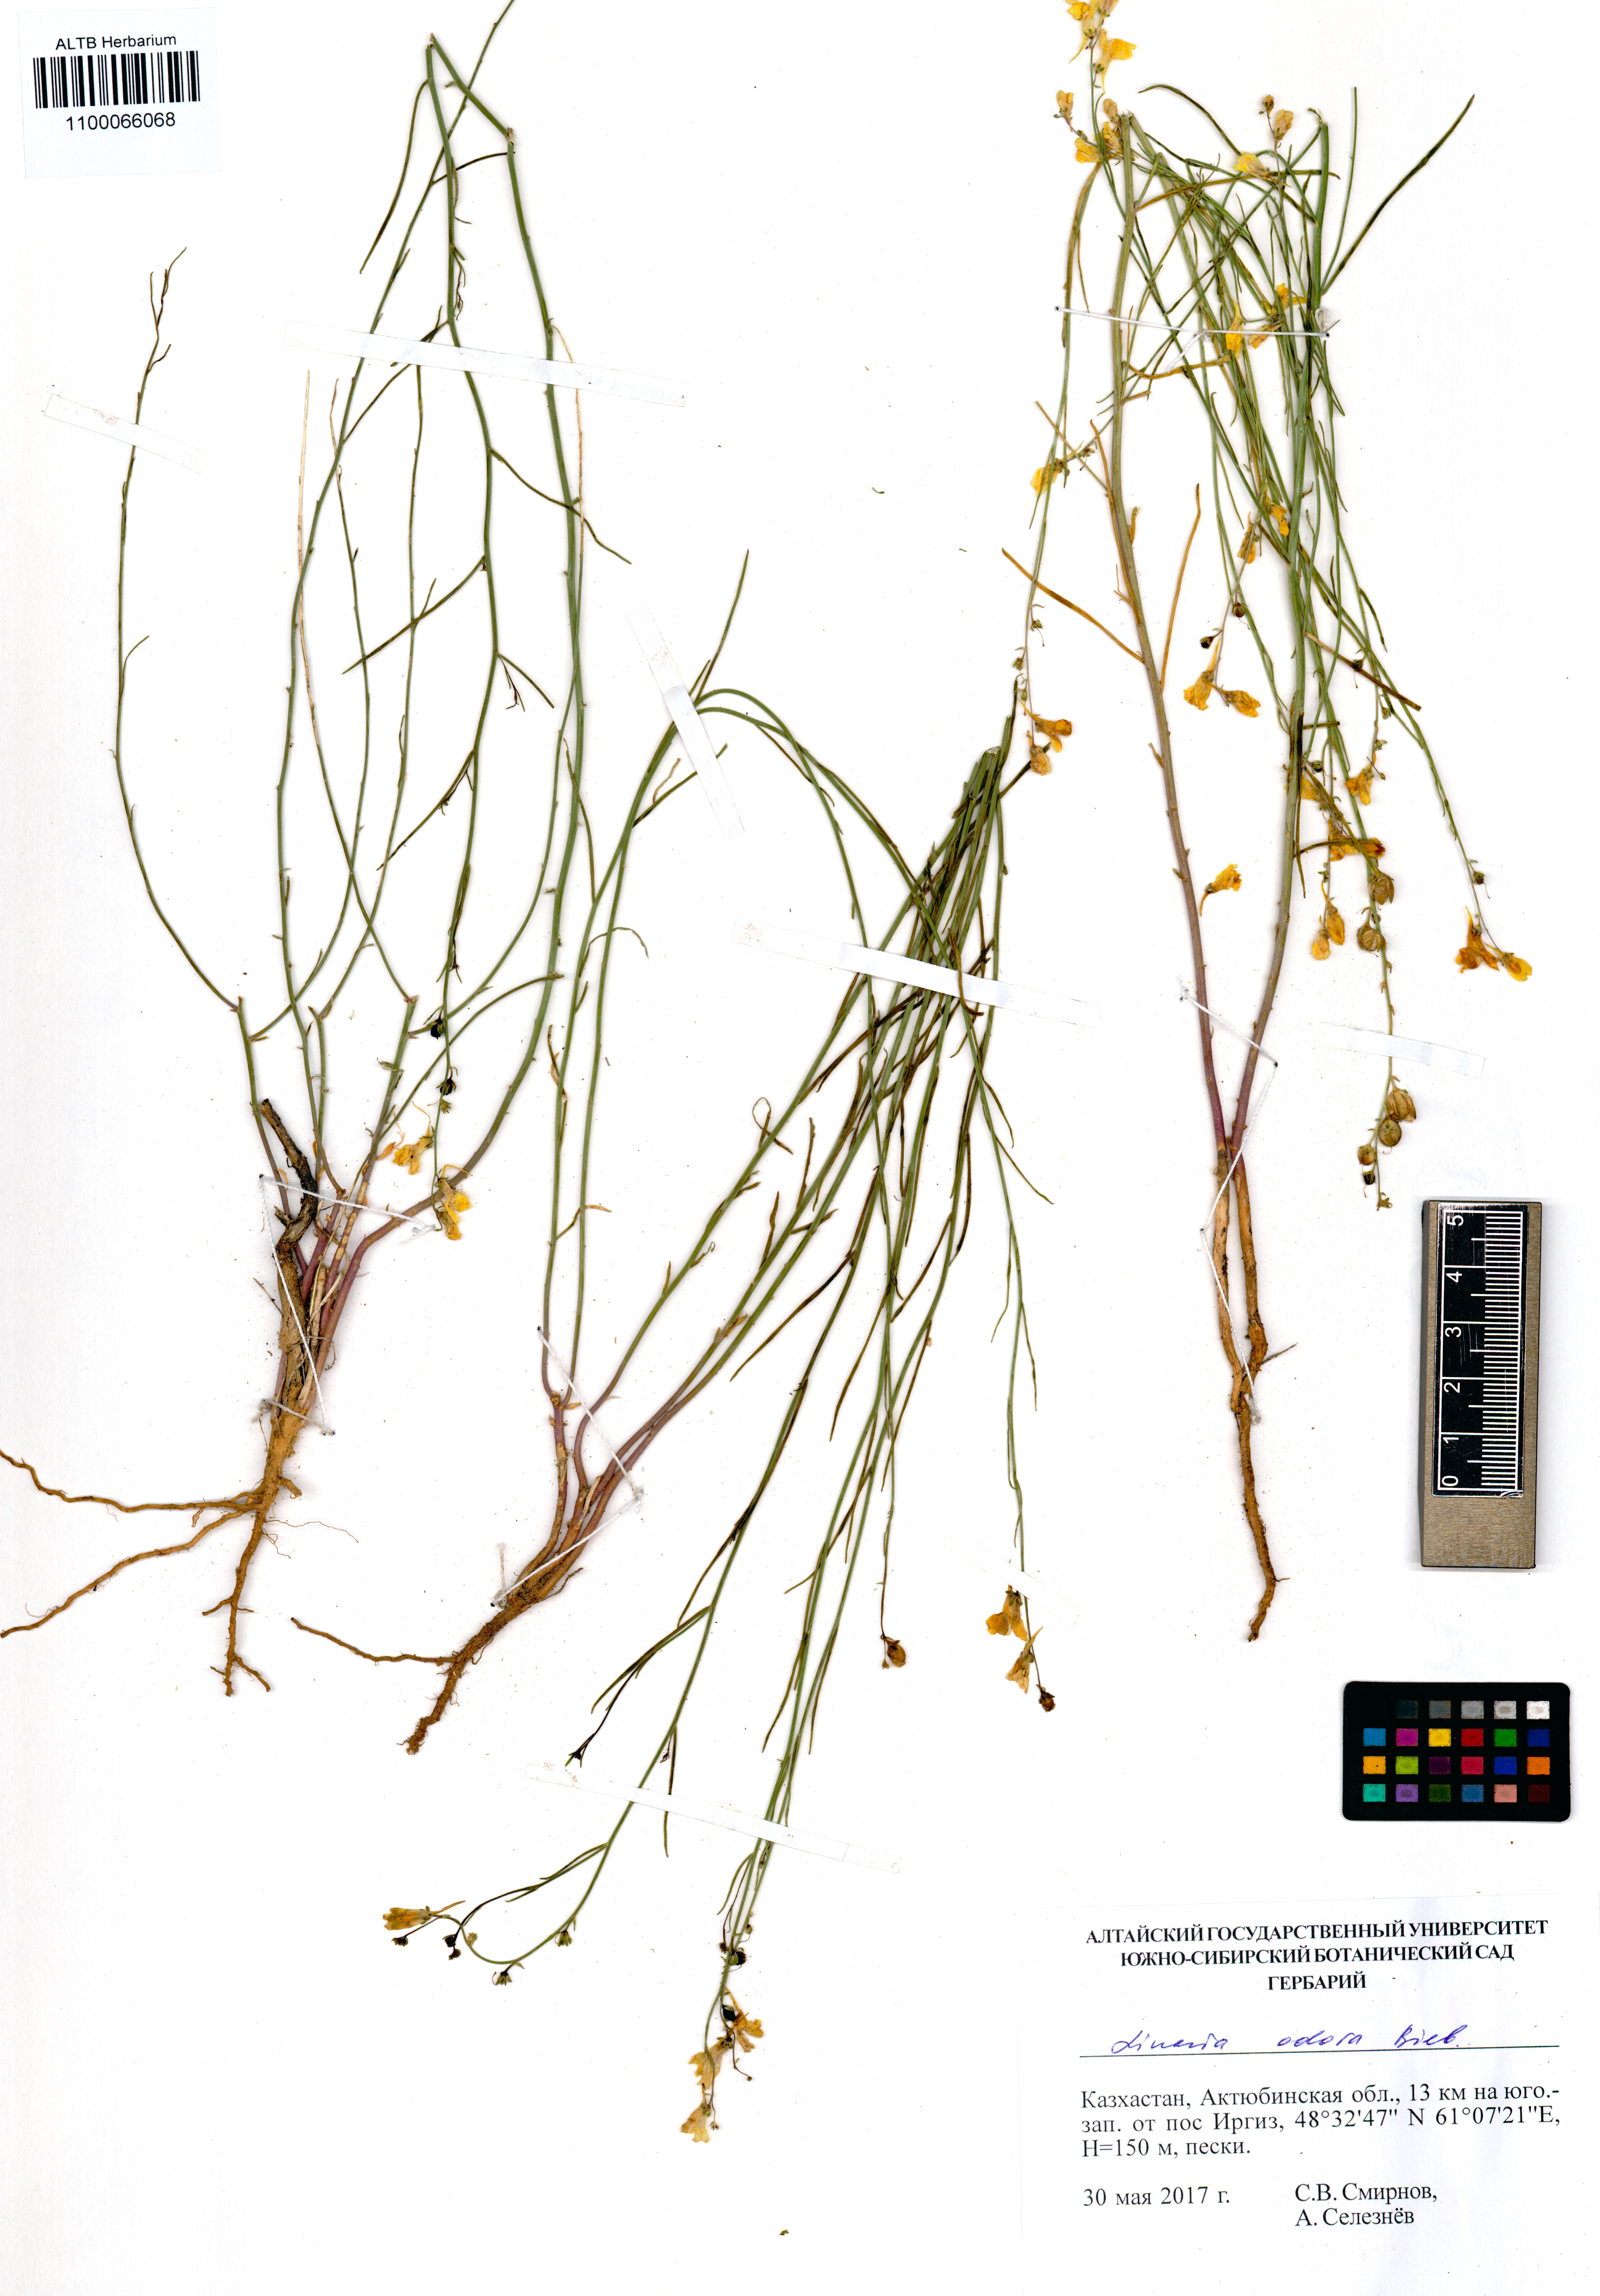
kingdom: Plantae
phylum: Tracheophyta
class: Magnoliopsida
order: Lamiales
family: Plantaginaceae
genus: Linaria
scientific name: Linaria odora
